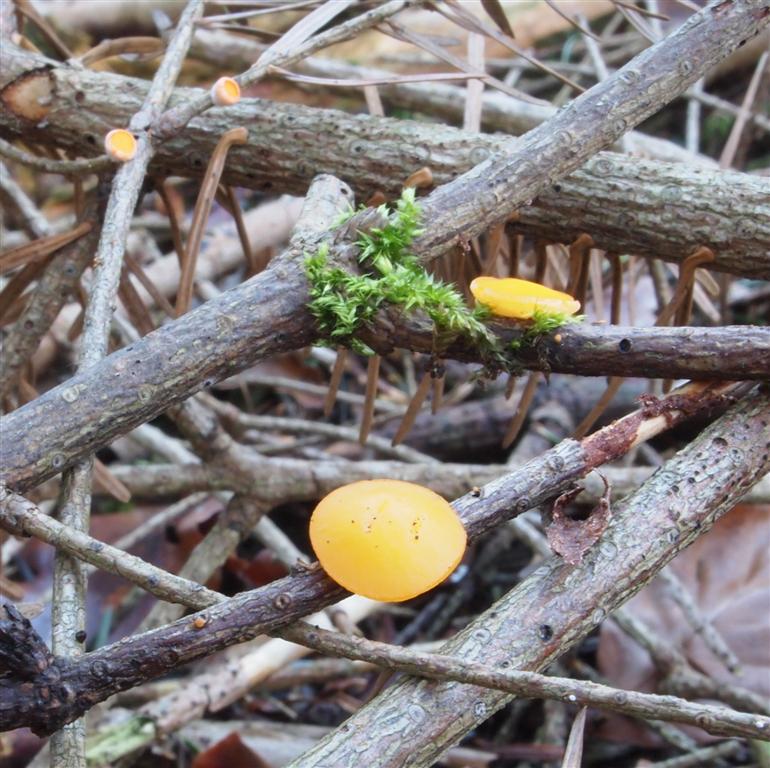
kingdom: Fungi
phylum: Ascomycota
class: Pezizomycetes
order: Pezizales
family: Sarcoscyphaceae
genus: Pithya
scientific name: Pithya vulgaris
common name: stor dukatbæger
